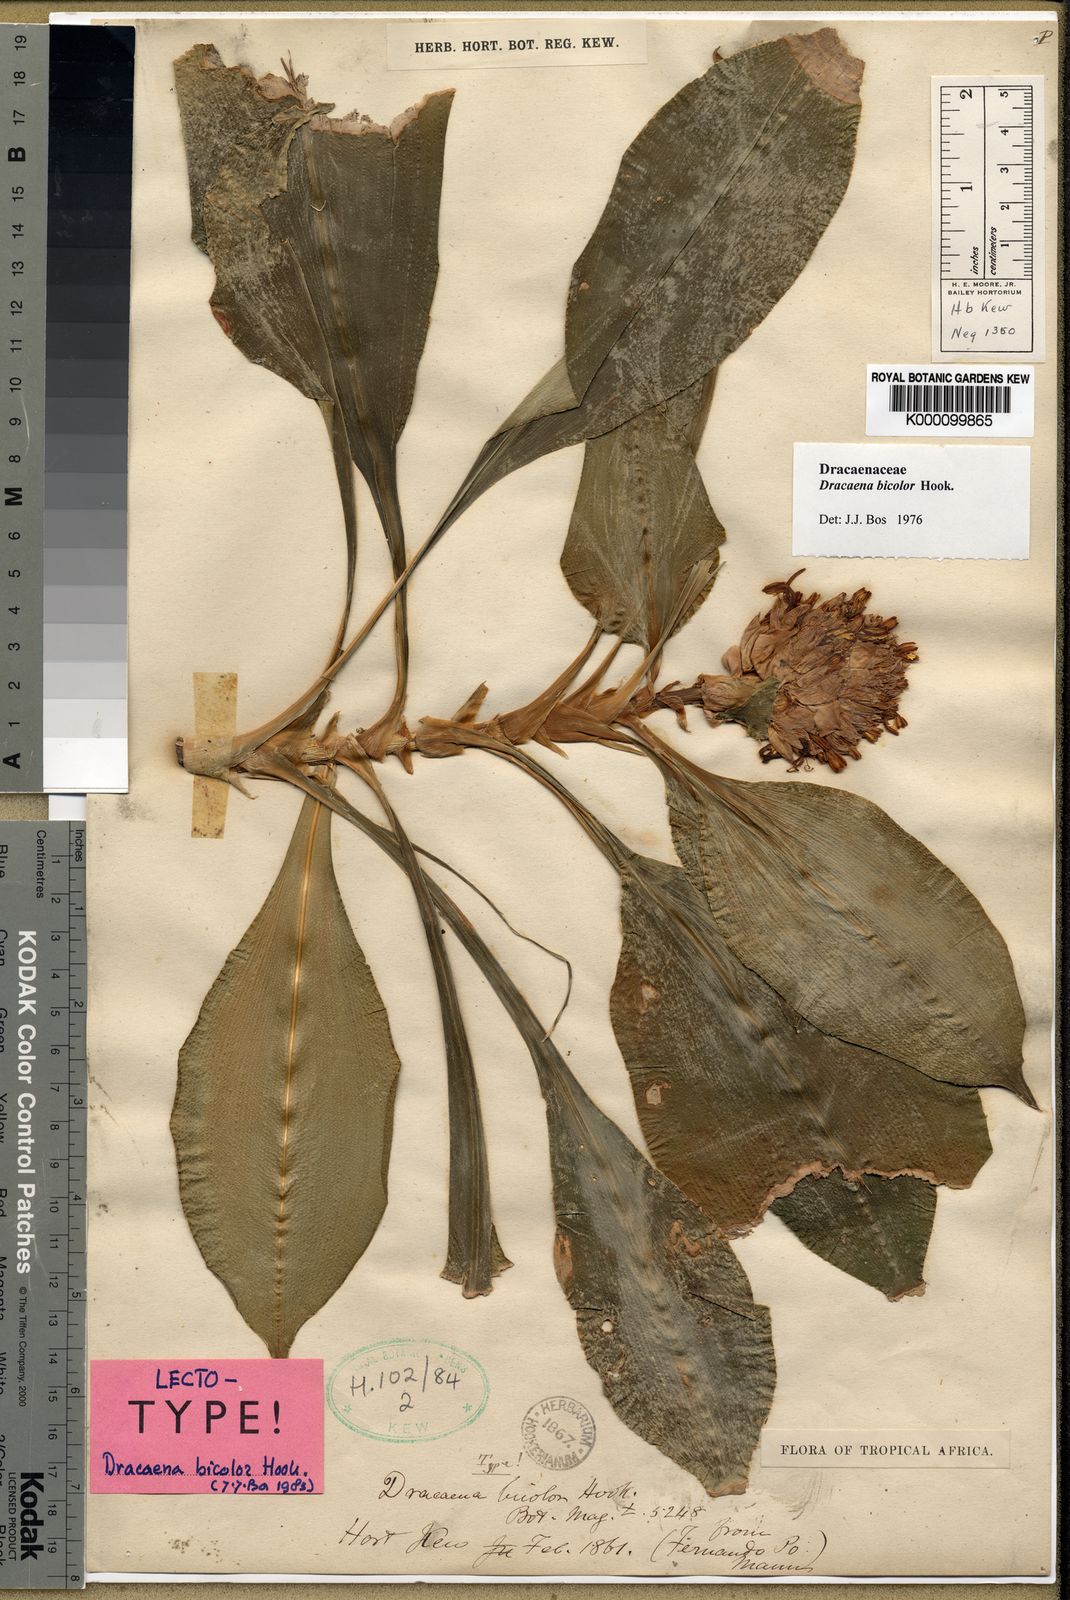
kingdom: Plantae
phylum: Tracheophyta
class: Liliopsida
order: Asparagales
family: Asparagaceae
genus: Dracaena
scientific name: Dracaena bicolor
